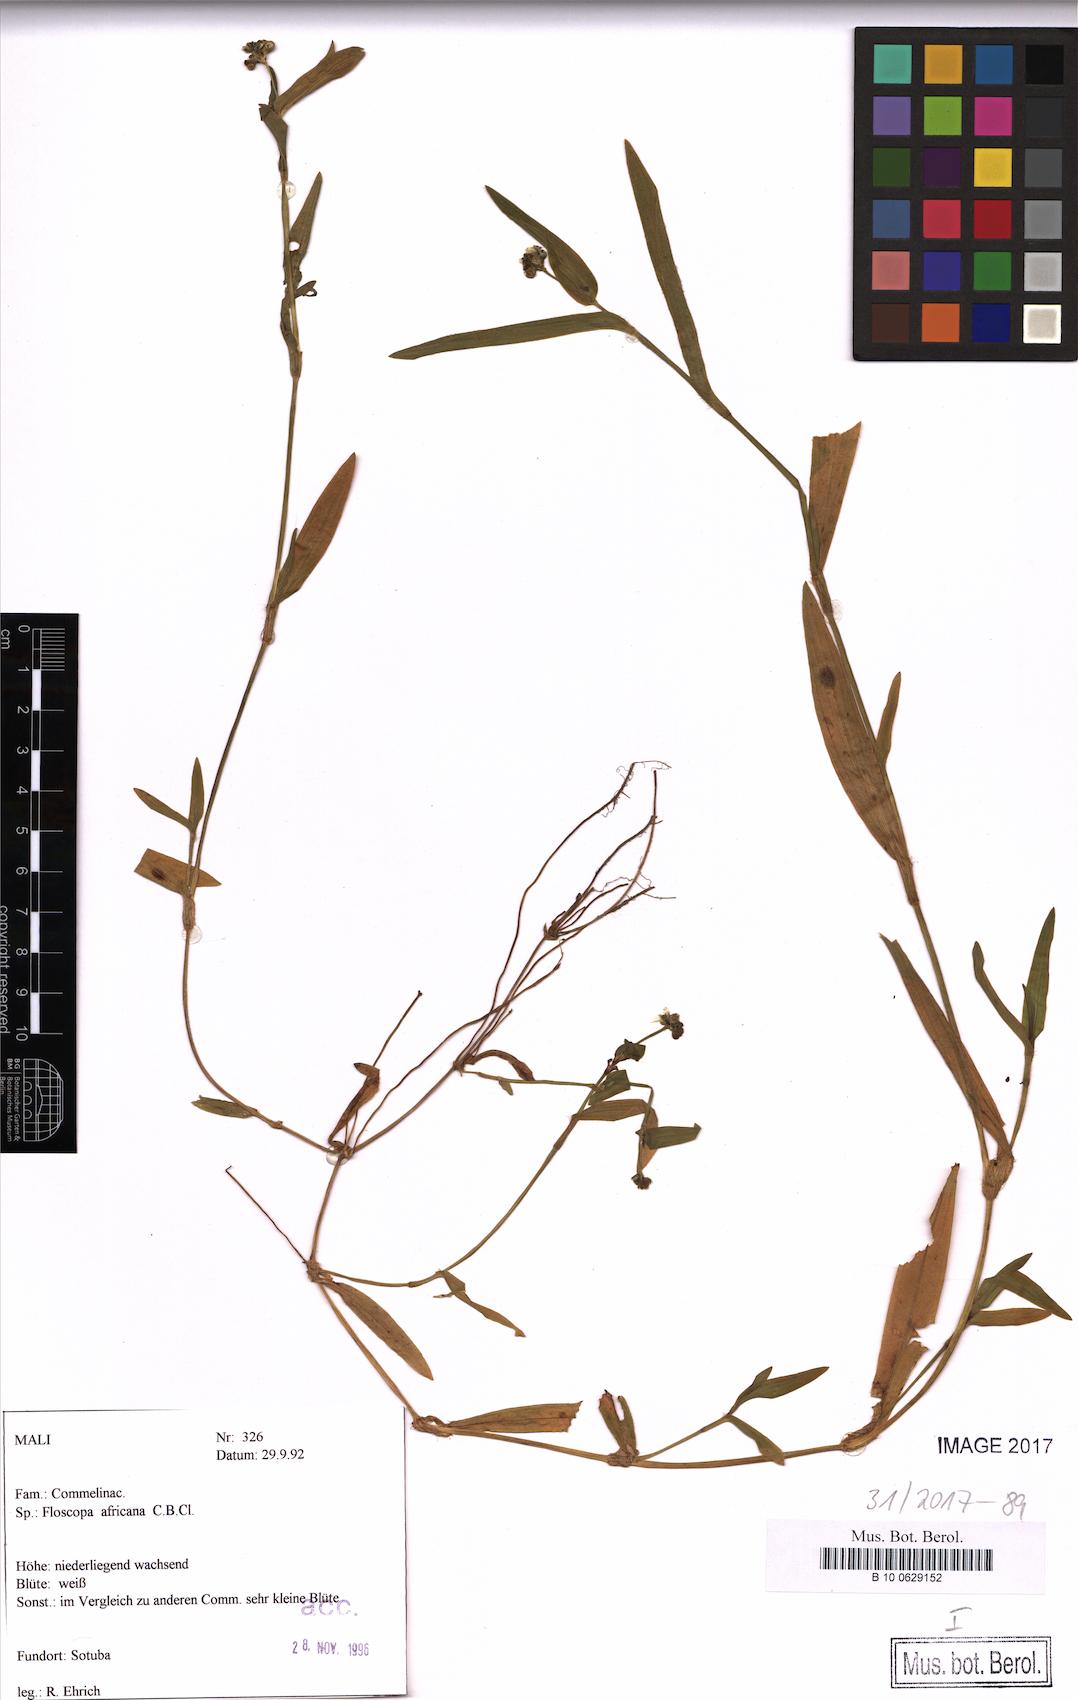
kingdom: Plantae
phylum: Tracheophyta
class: Liliopsida
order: Commelinales
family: Commelinaceae
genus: Floscopa
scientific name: Floscopa africana
